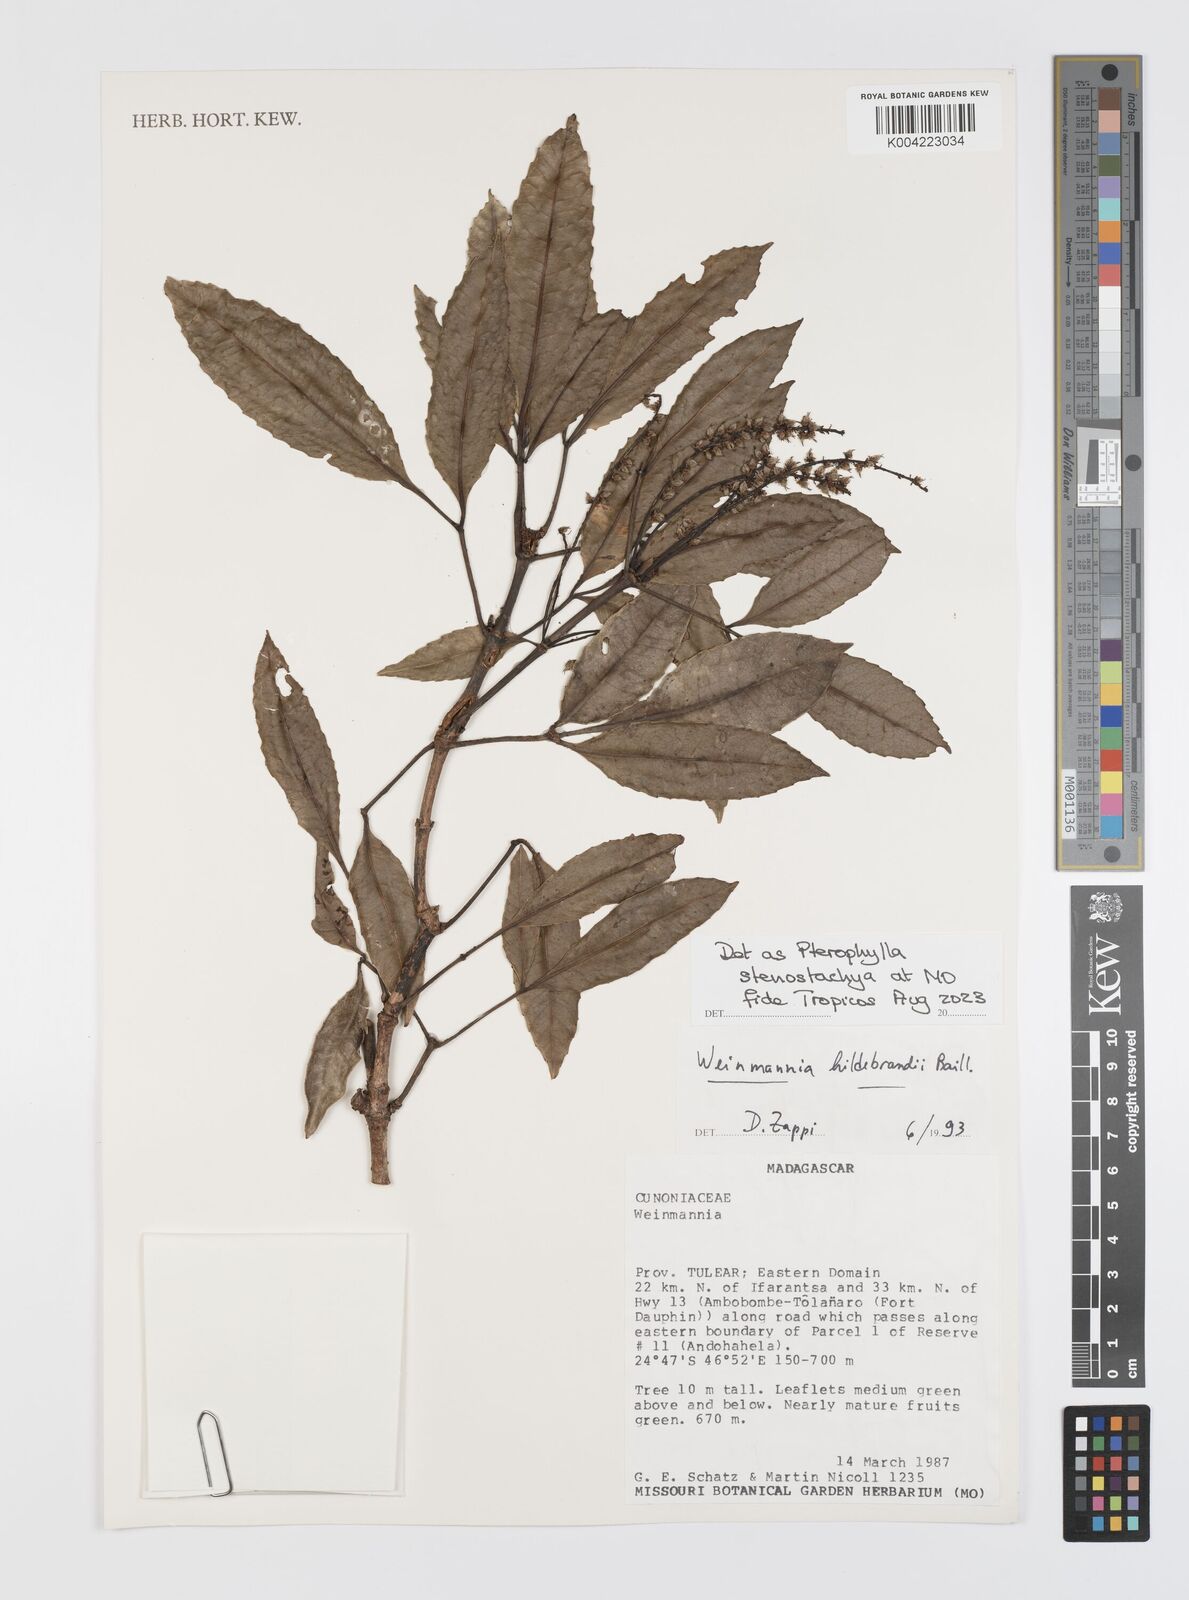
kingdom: Plantae
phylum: Tracheophyta
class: Magnoliopsida
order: Oxalidales
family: Cunoniaceae
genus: Pterophylla
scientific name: Pterophylla stenostachya
